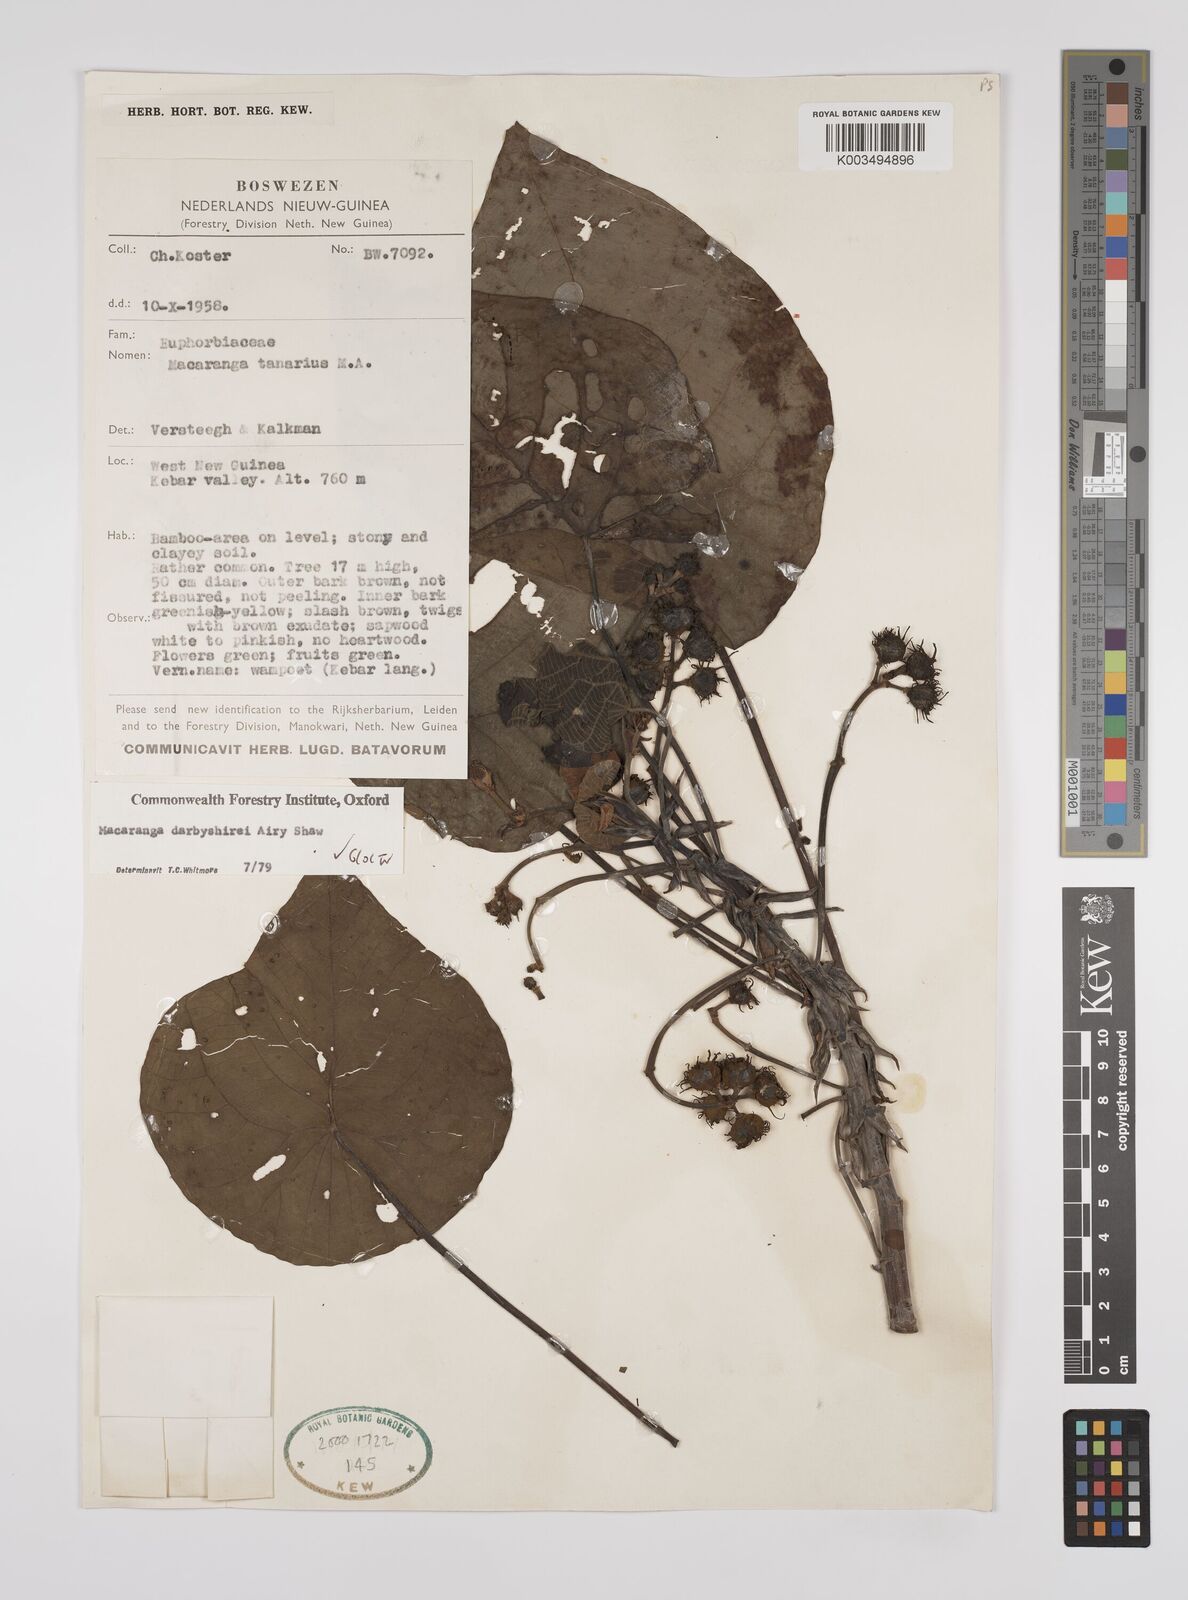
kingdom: Plantae
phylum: Tracheophyta
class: Magnoliopsida
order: Malpighiales
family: Euphorbiaceae
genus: Macaranga
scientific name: Macaranga darbyshirei
